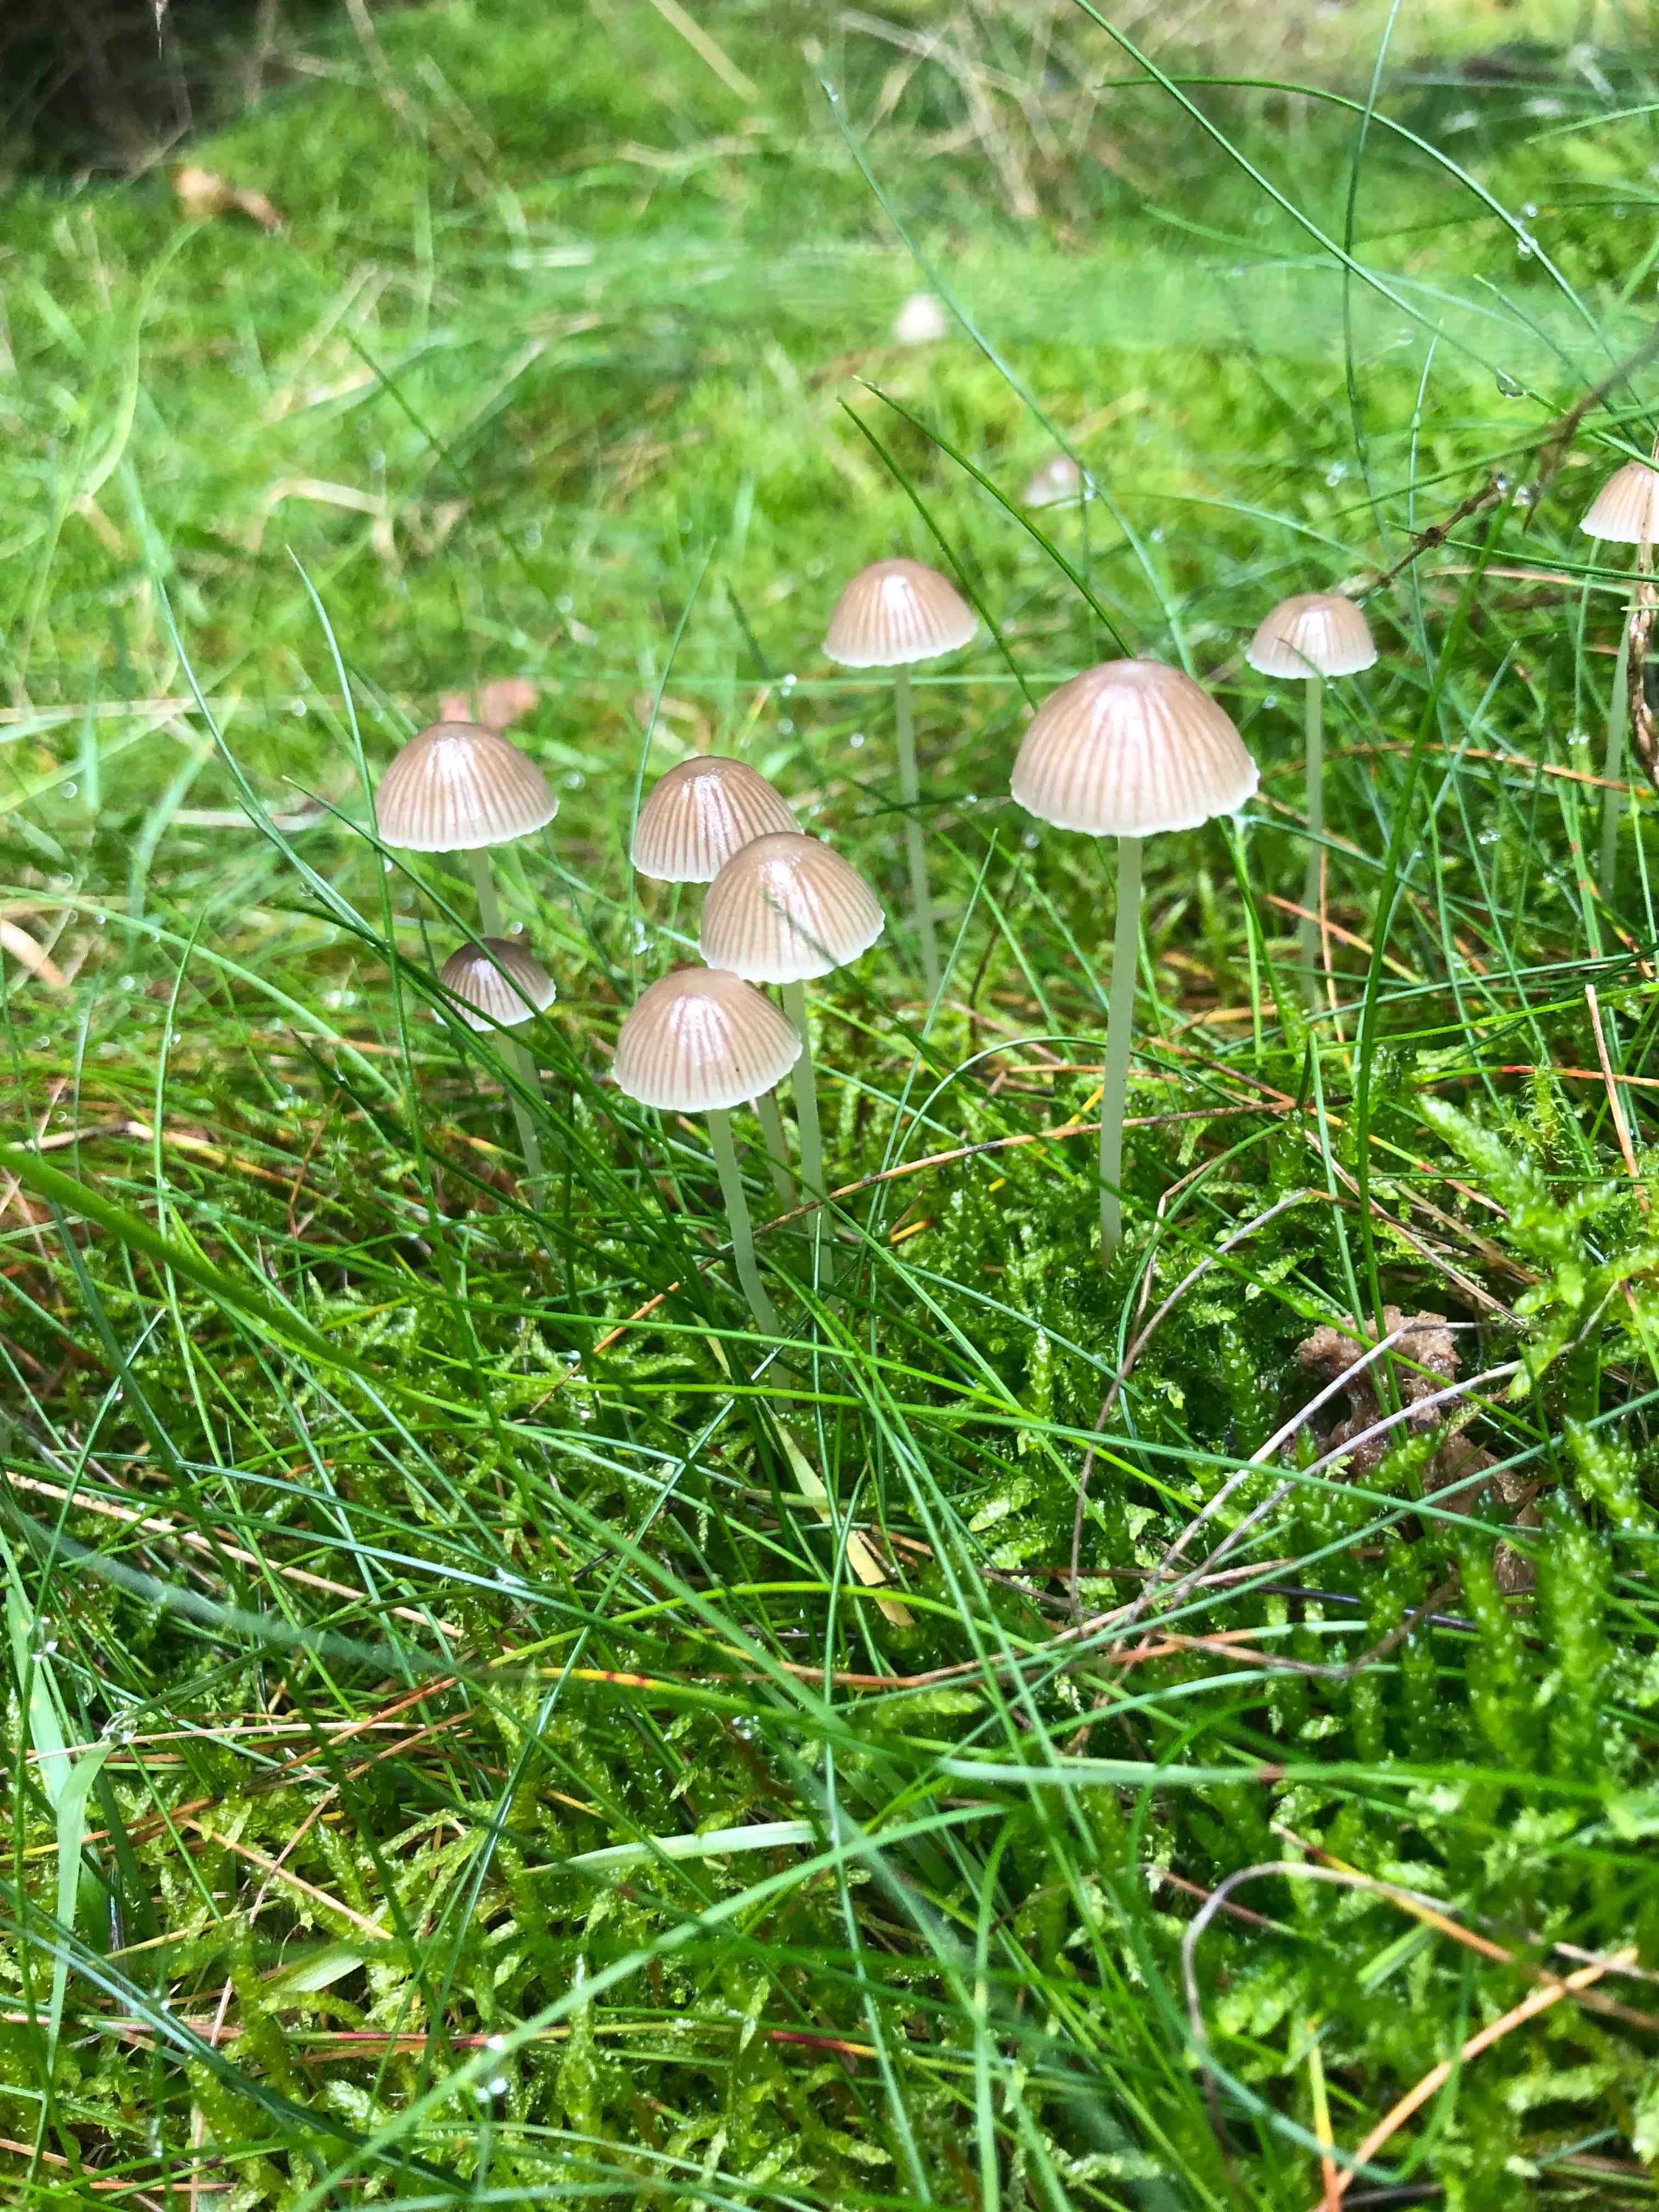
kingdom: Fungi
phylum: Basidiomycota
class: Agaricomycetes
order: Agaricales
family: Mycenaceae
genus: Mycena
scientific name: Mycena epipterygia
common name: gulstokket huesvamp
